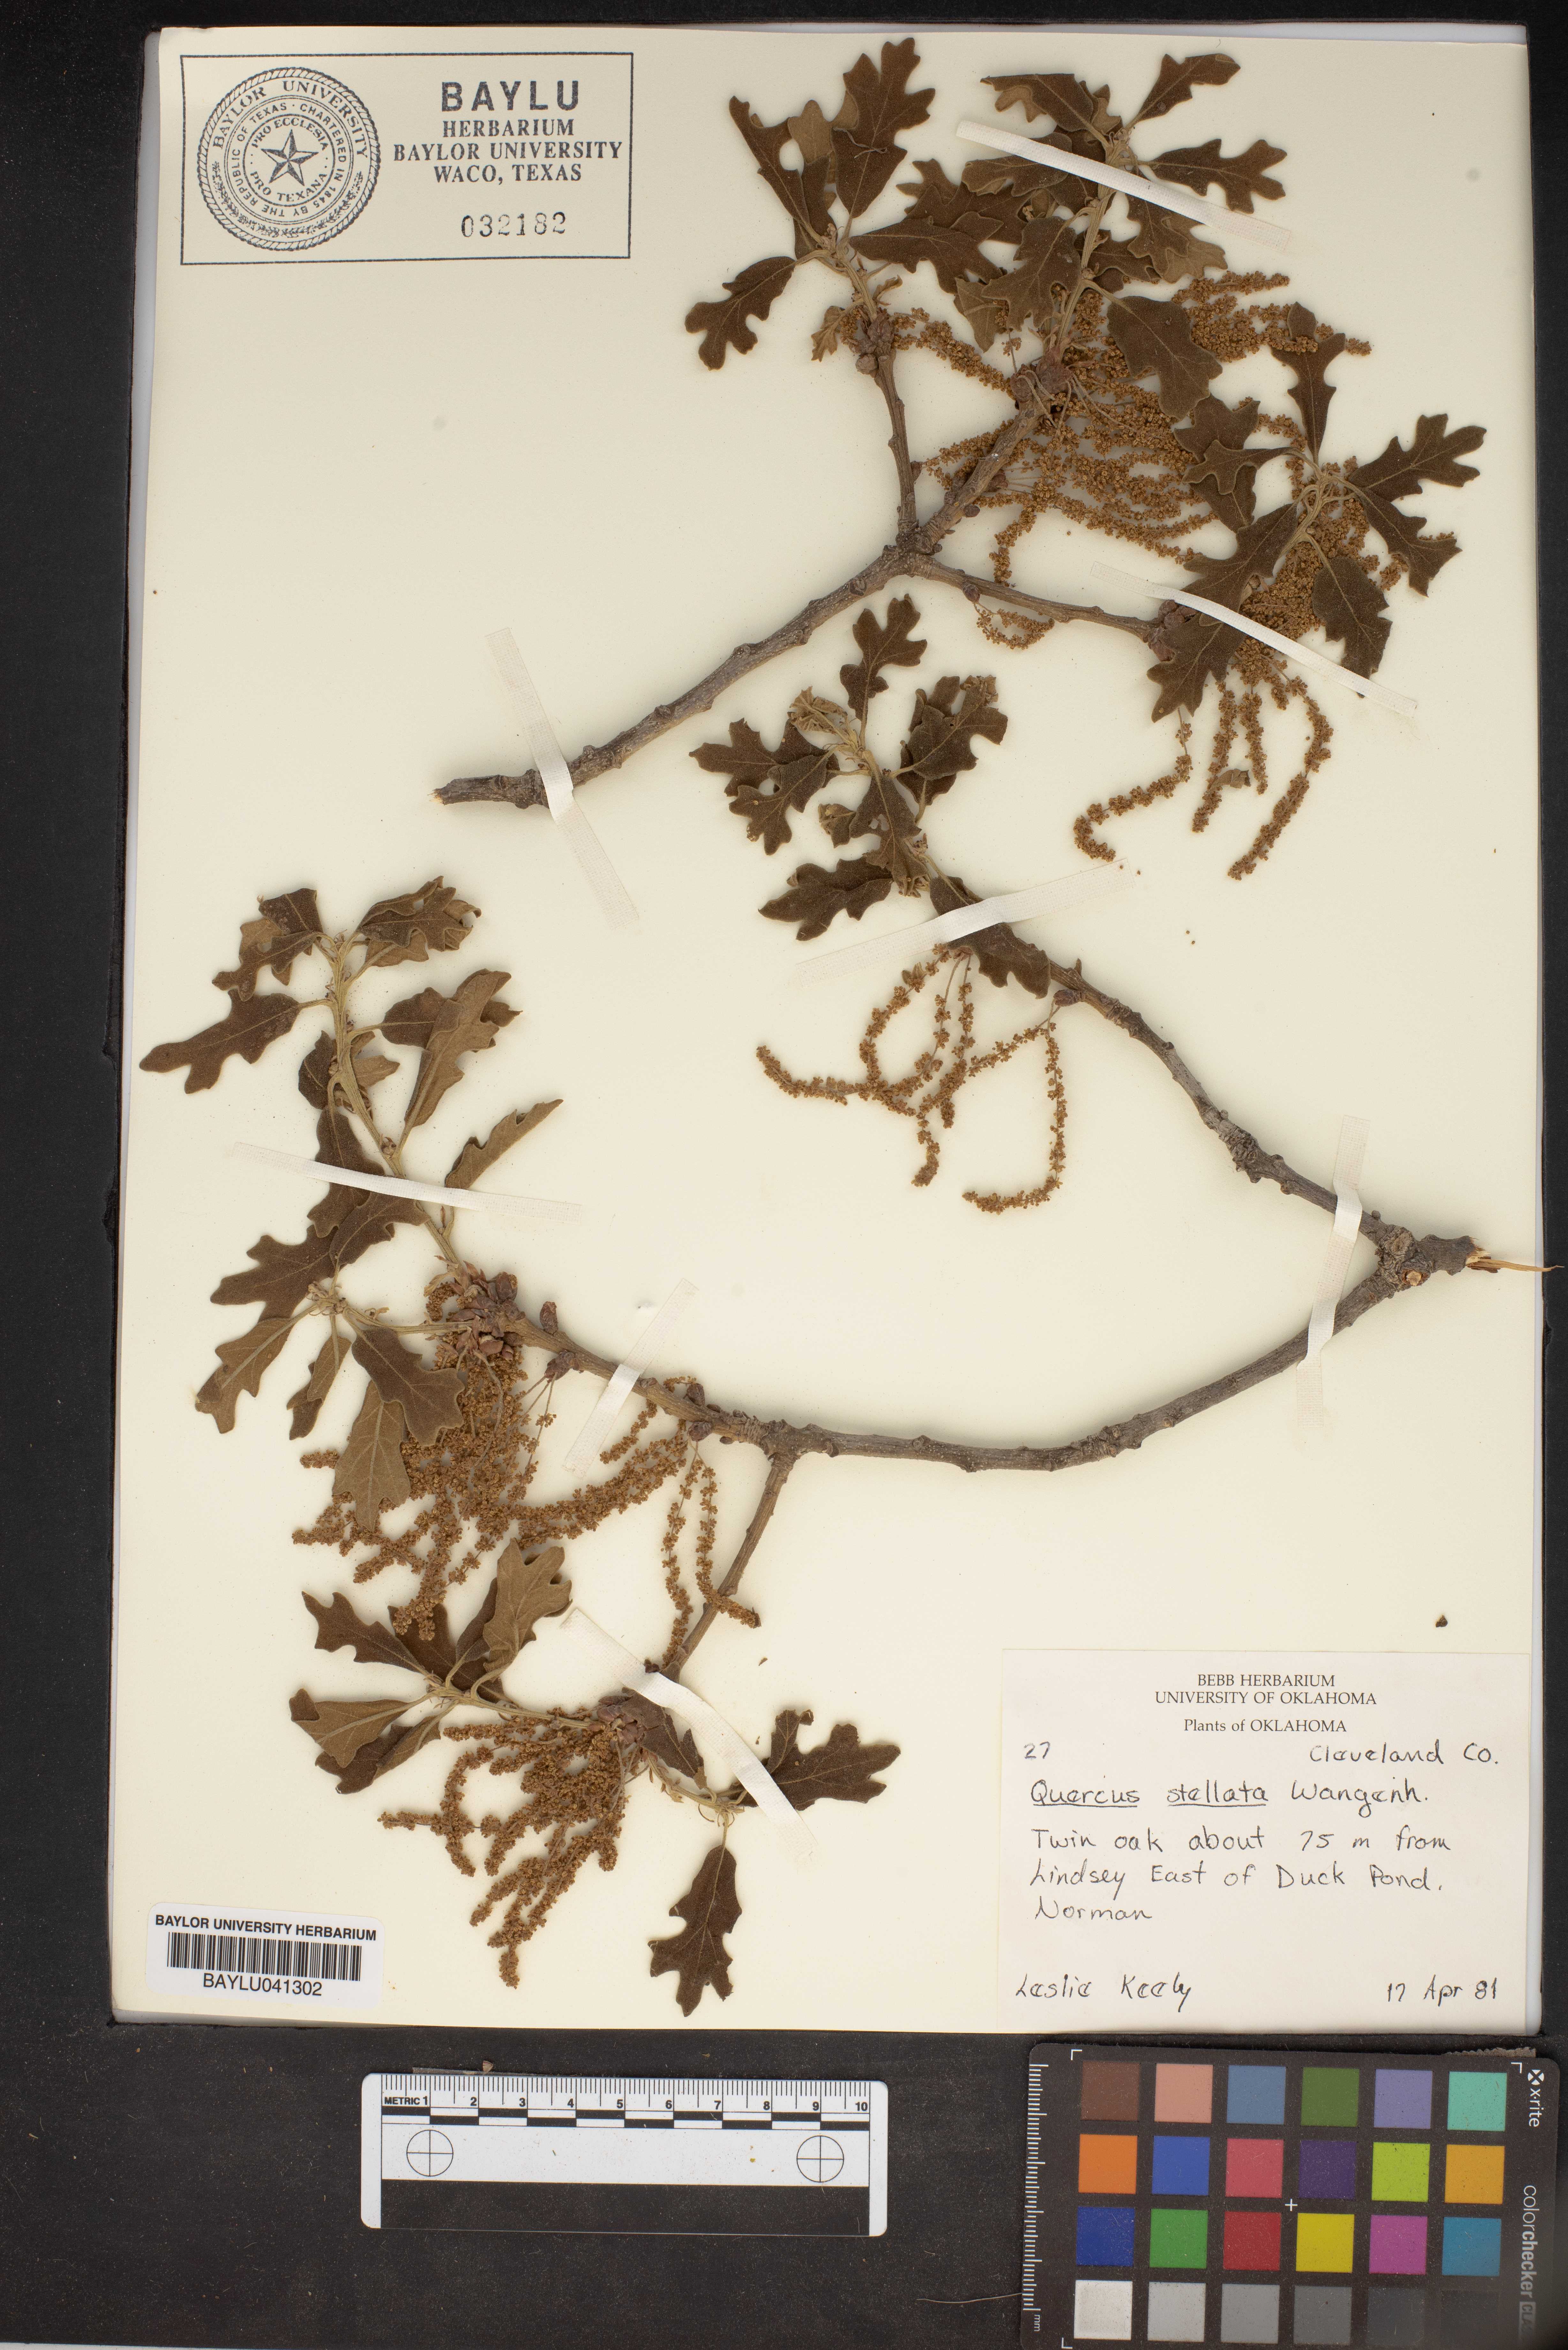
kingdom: Plantae
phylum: Tracheophyta
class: Magnoliopsida
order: Fagales
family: Fagaceae
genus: Quercus
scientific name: Quercus stellata
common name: Post oak
